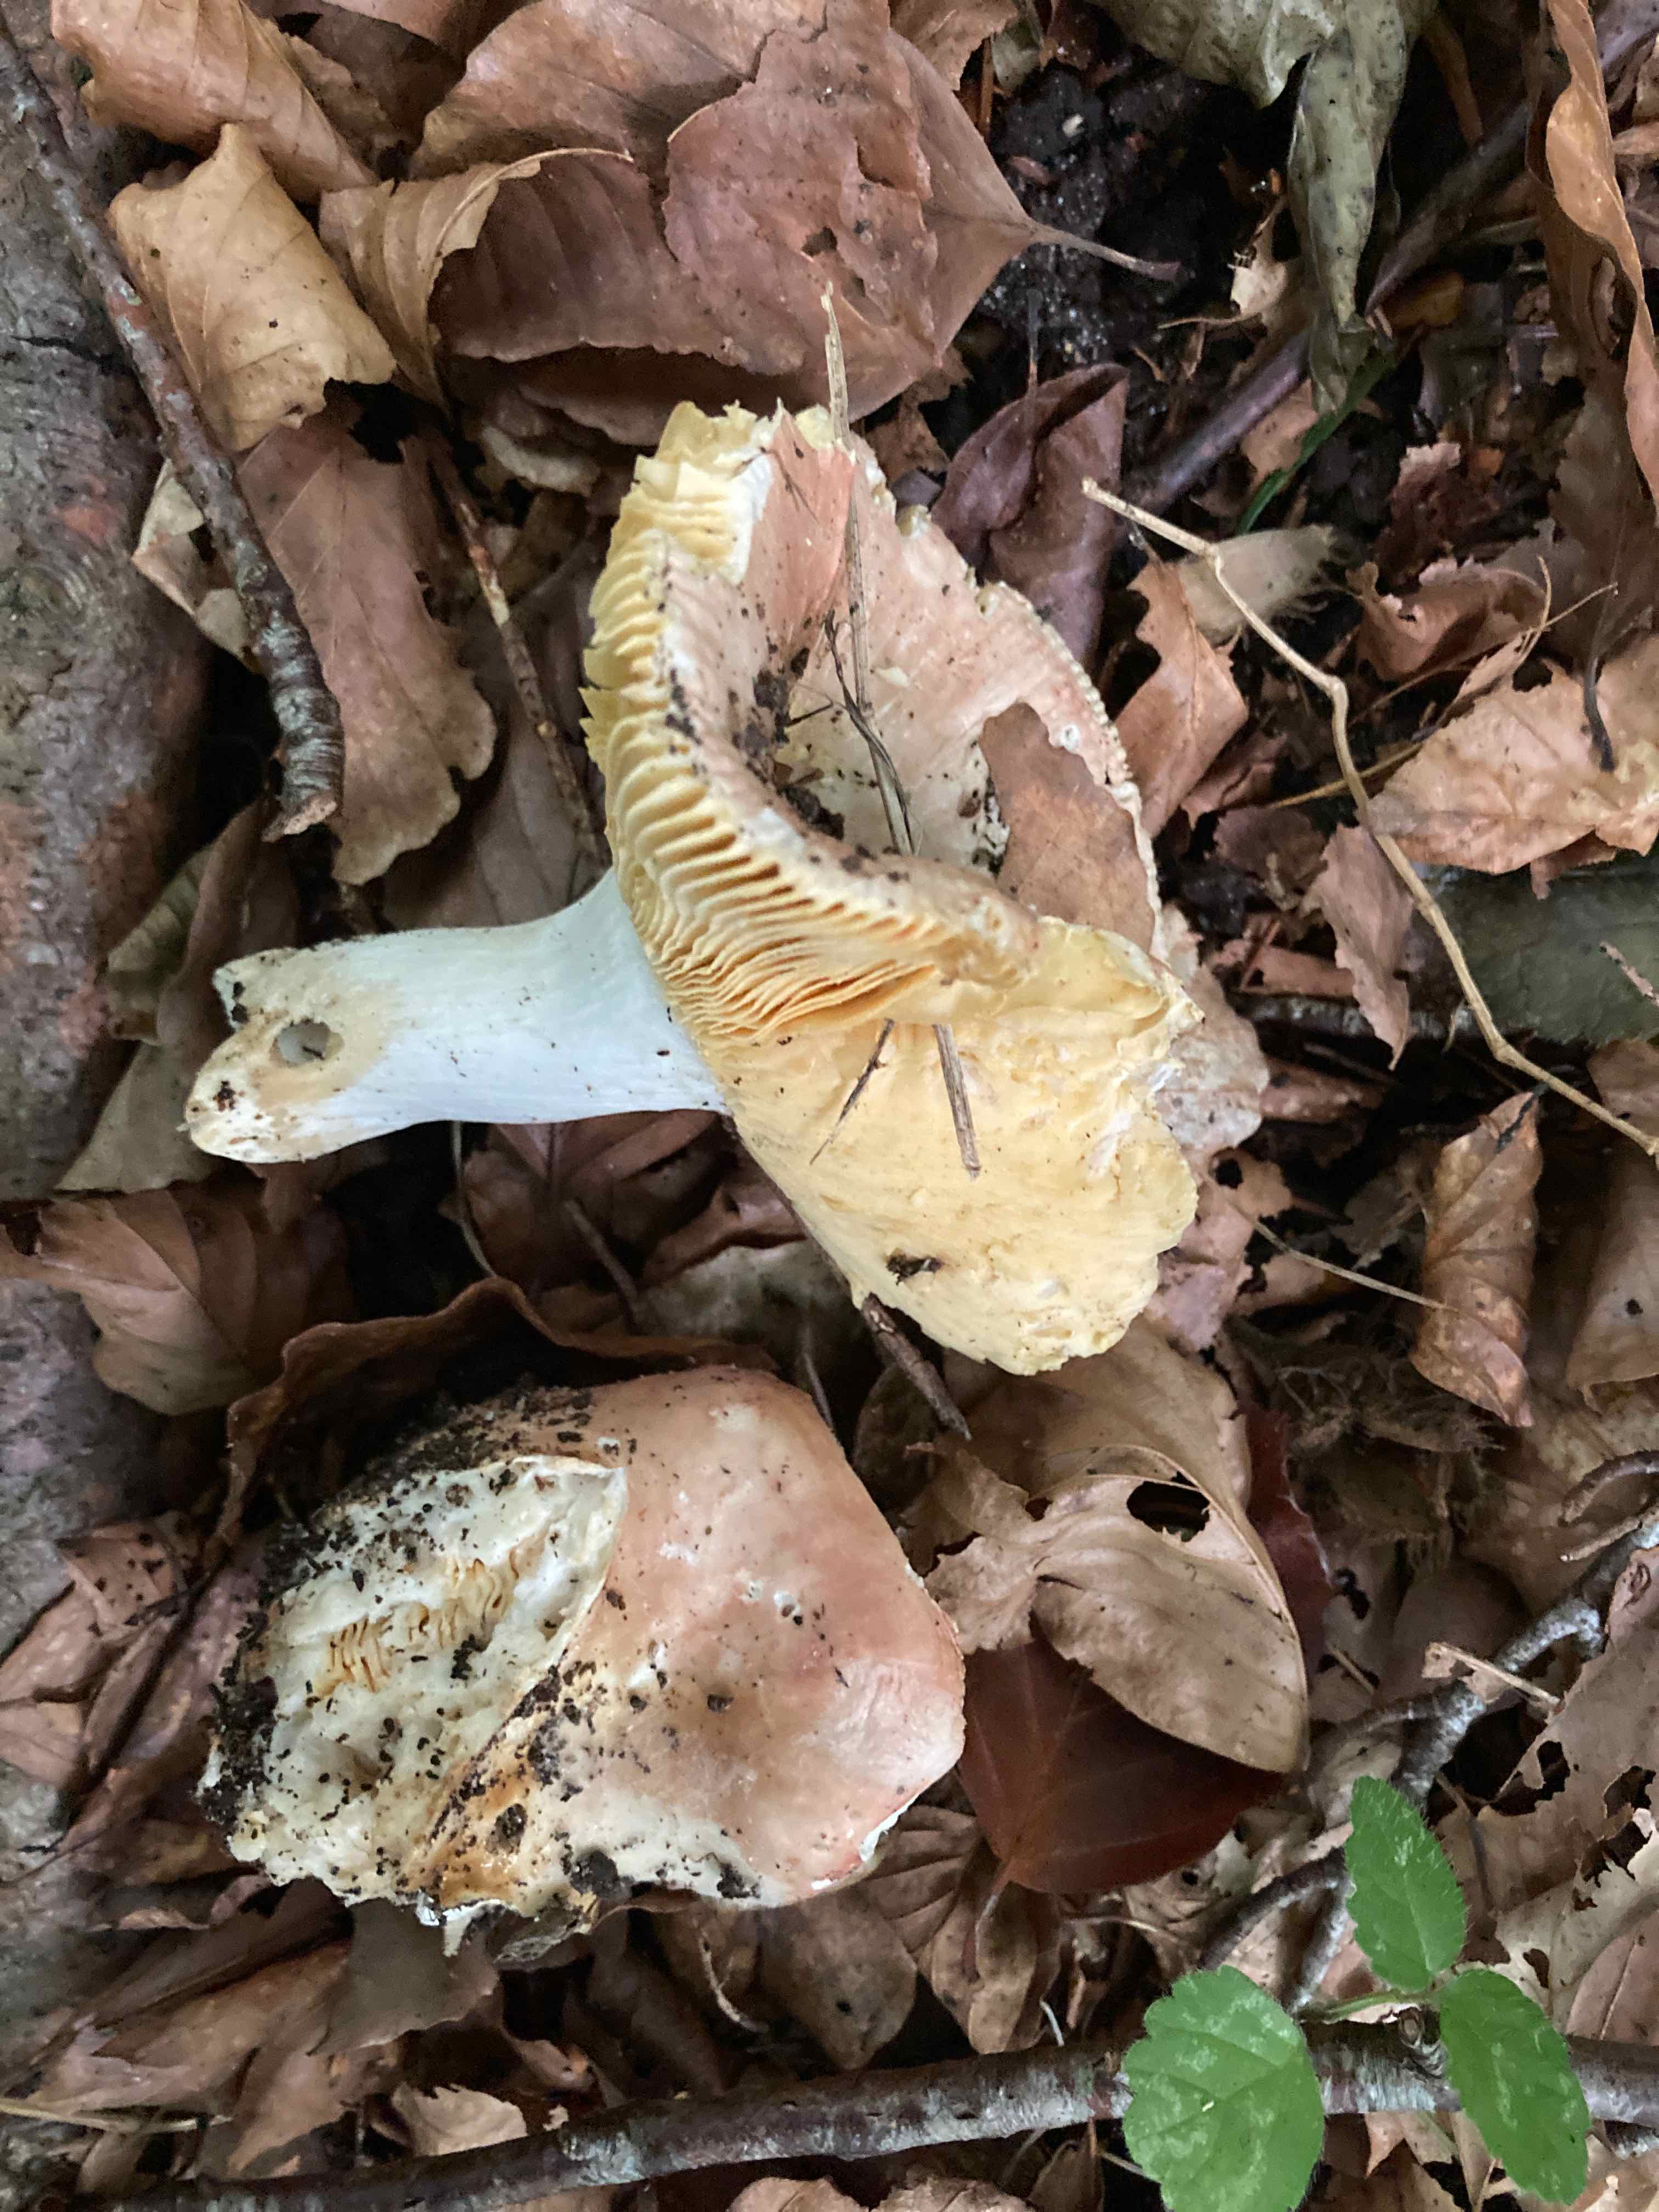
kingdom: Fungi
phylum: Basidiomycota
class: Agaricomycetes
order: Russulales
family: Russulaceae
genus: Russula
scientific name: Russula veternosa
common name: blødkødet skørhat
